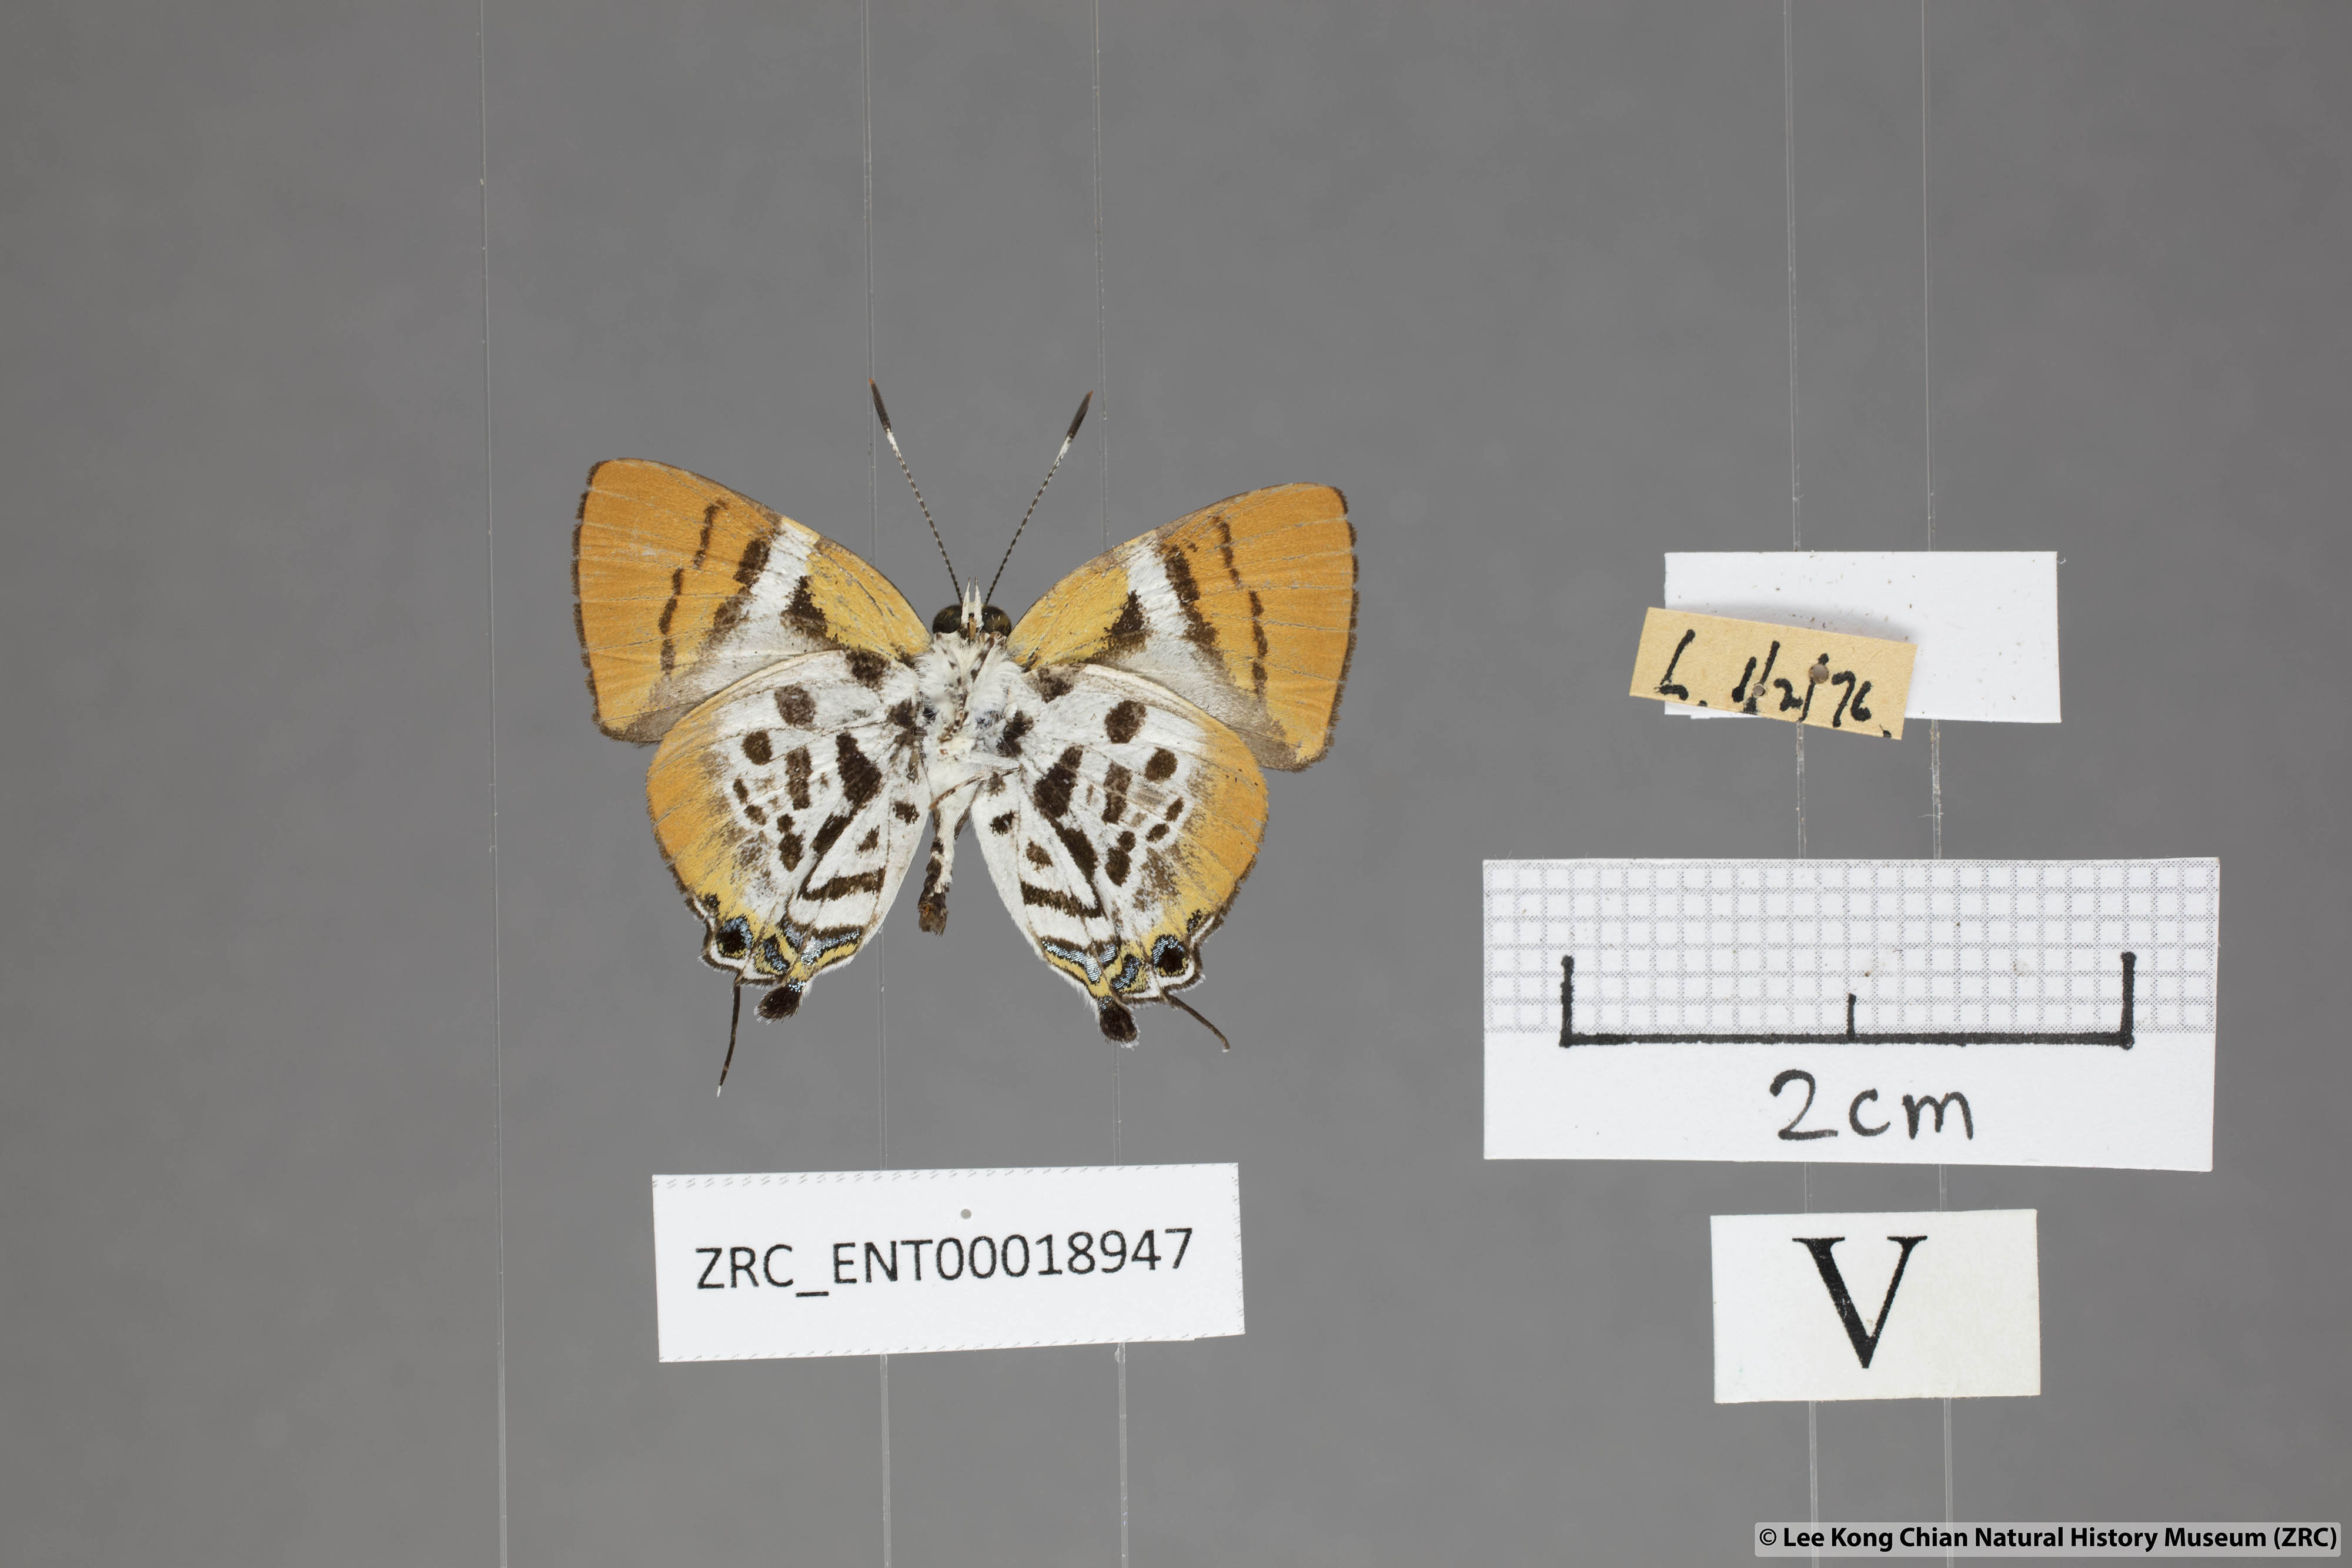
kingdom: Animalia
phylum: Arthropoda
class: Insecta
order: Lepidoptera
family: Lycaenidae
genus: Araotes
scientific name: Araotes lapithis
